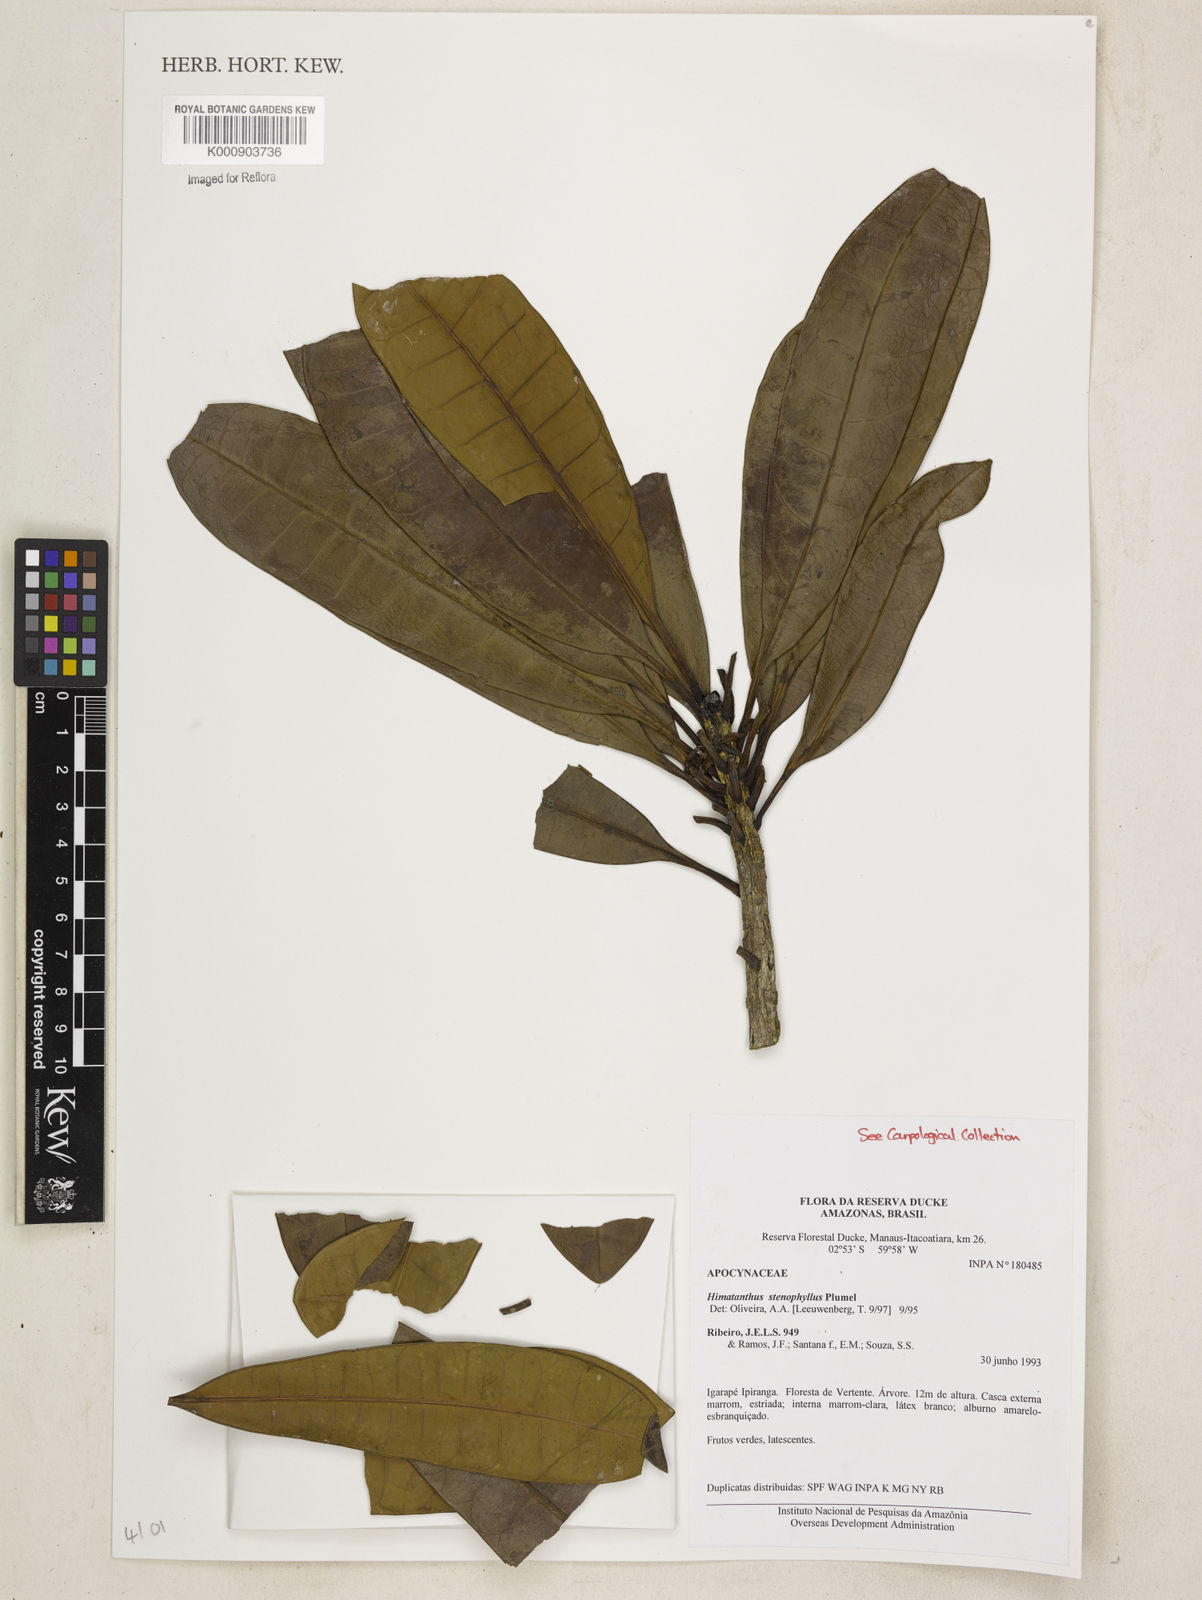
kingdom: Plantae
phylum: Tracheophyta
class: Magnoliopsida
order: Gentianales
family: Apocynaceae
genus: Himatanthus
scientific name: Himatanthus revolutus
